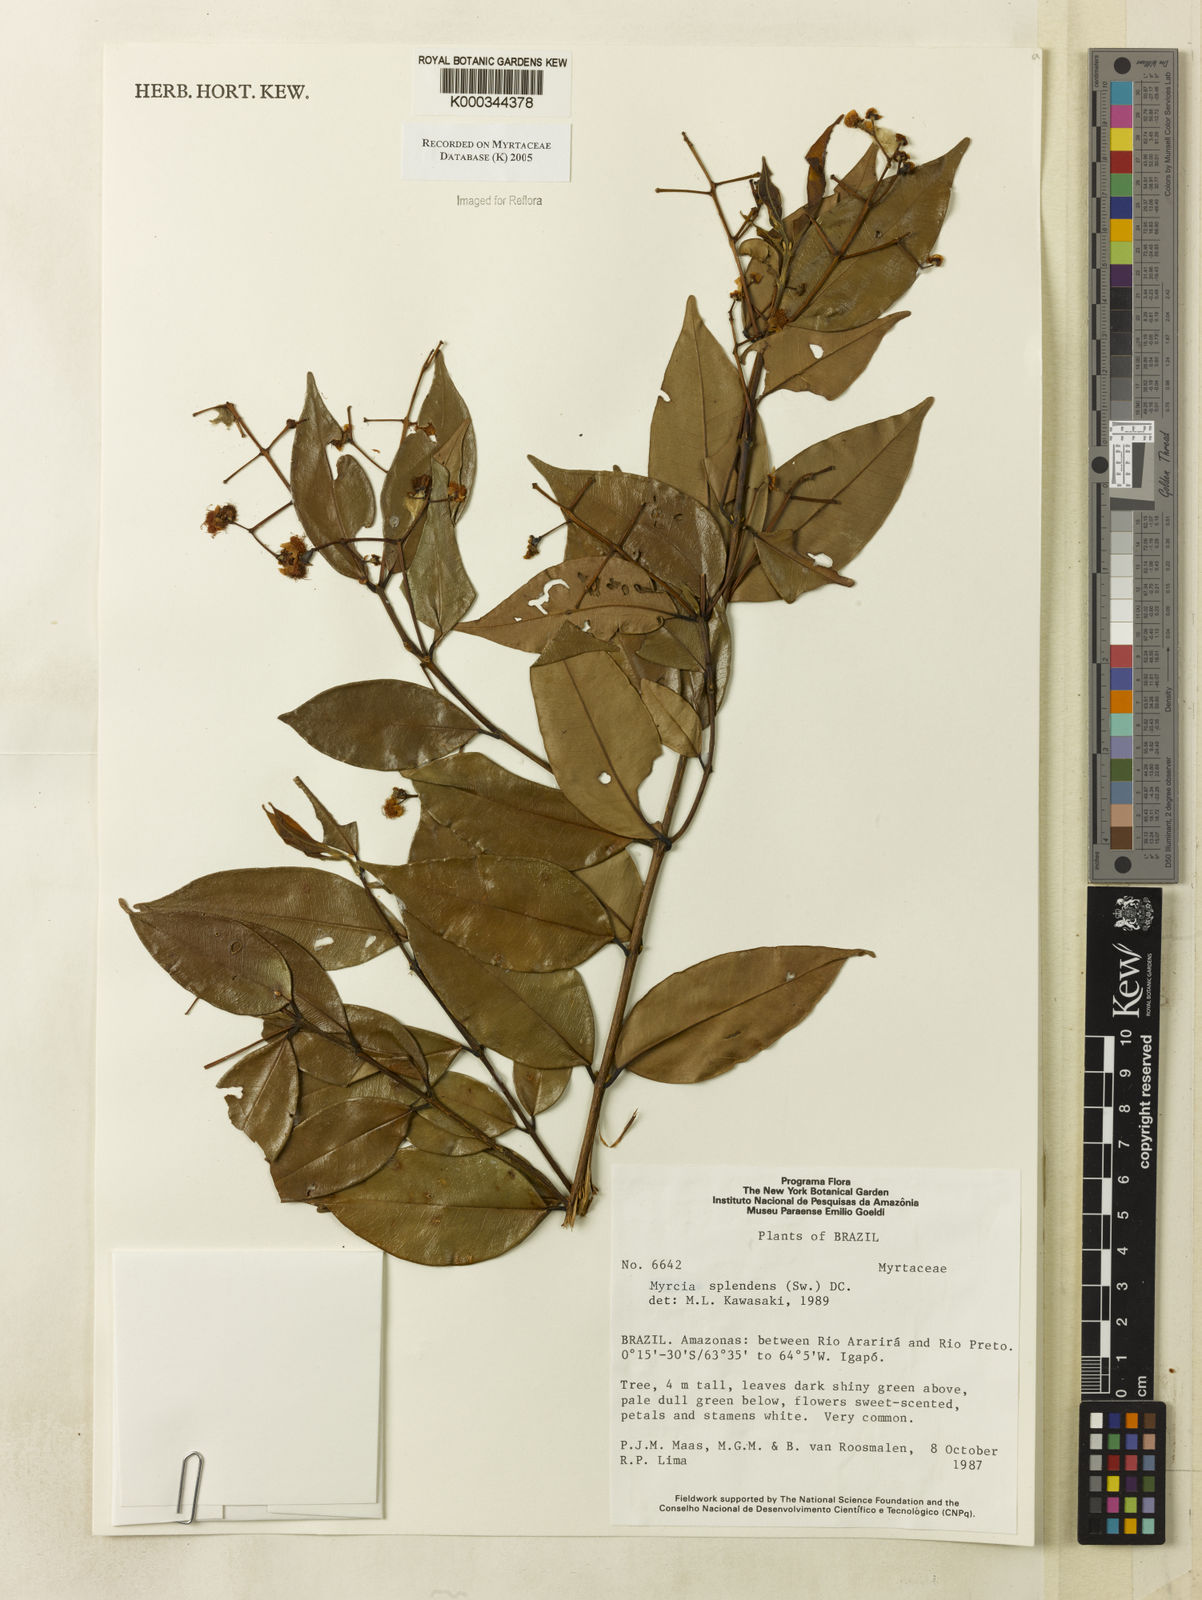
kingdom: Plantae
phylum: Tracheophyta
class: Magnoliopsida
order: Myrtales
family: Myrtaceae
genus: Myrcia
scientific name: Myrcia splendens
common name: Surinam cherry
